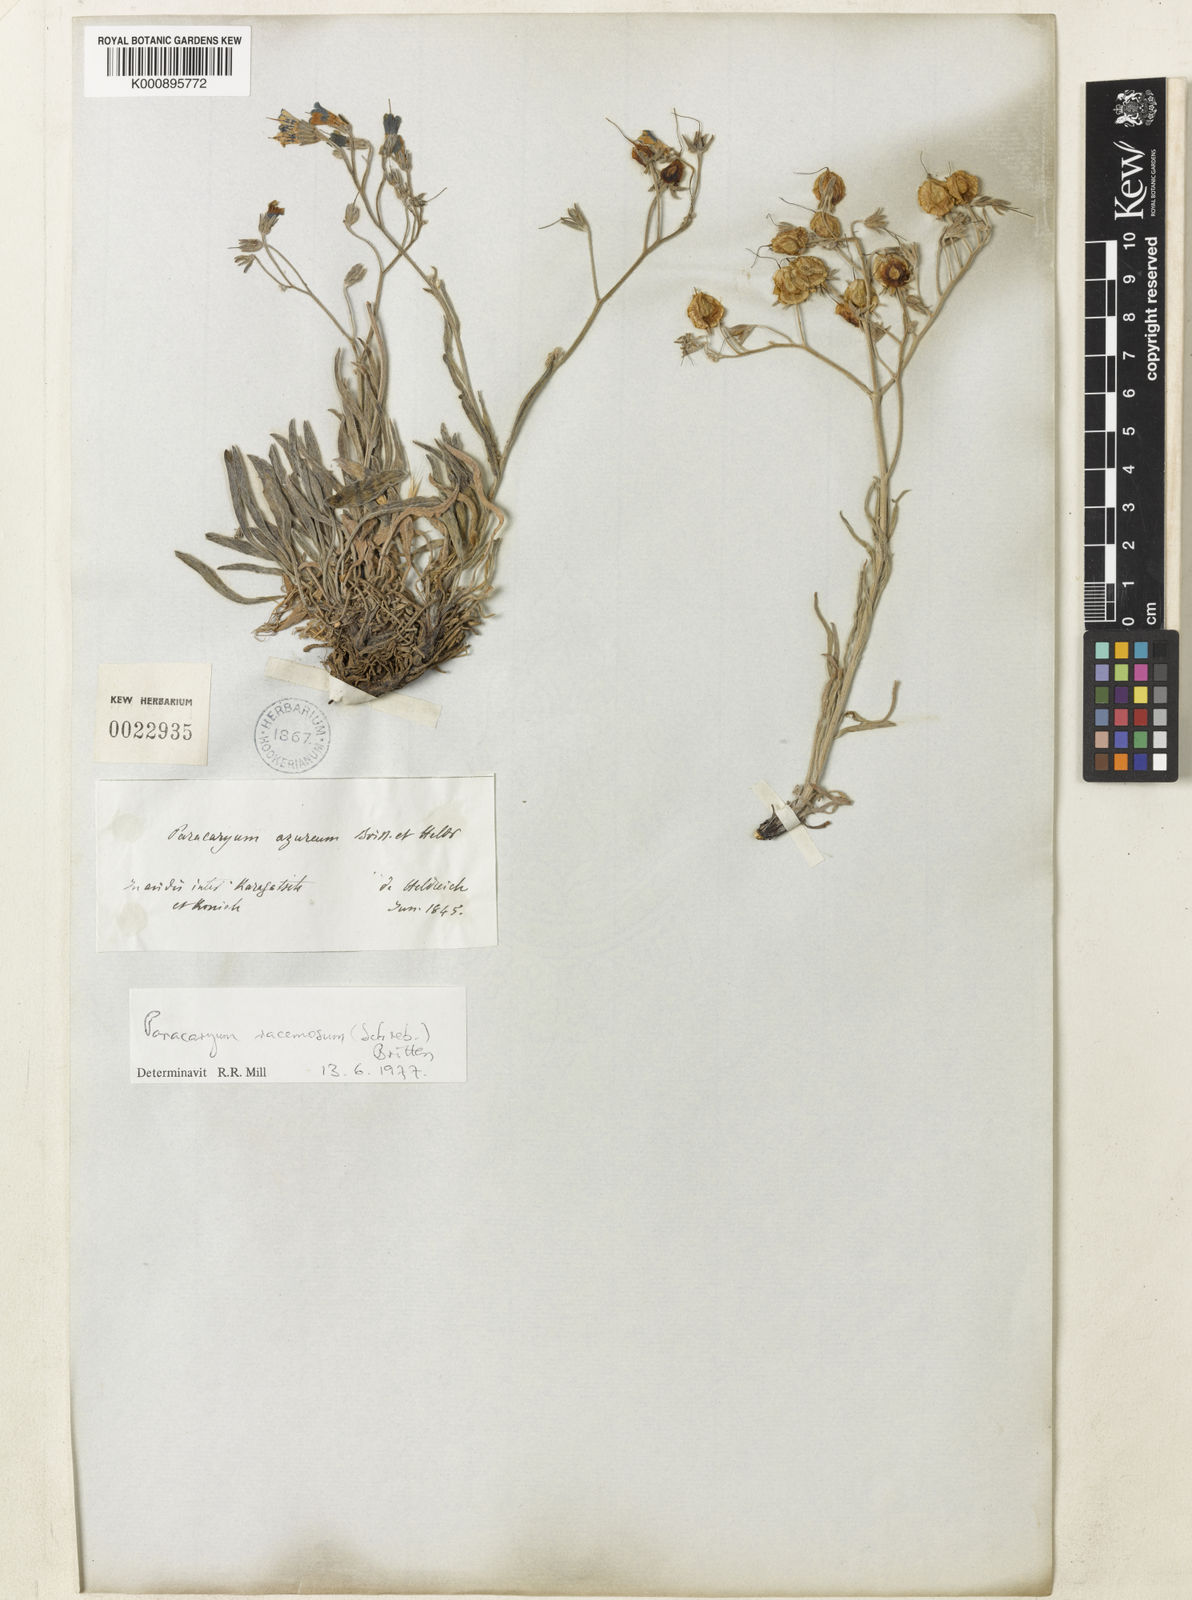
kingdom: Plantae
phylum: Tracheophyta
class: Magnoliopsida
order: Boraginales
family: Boraginaceae
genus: Paracaryum
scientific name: Paracaryum
